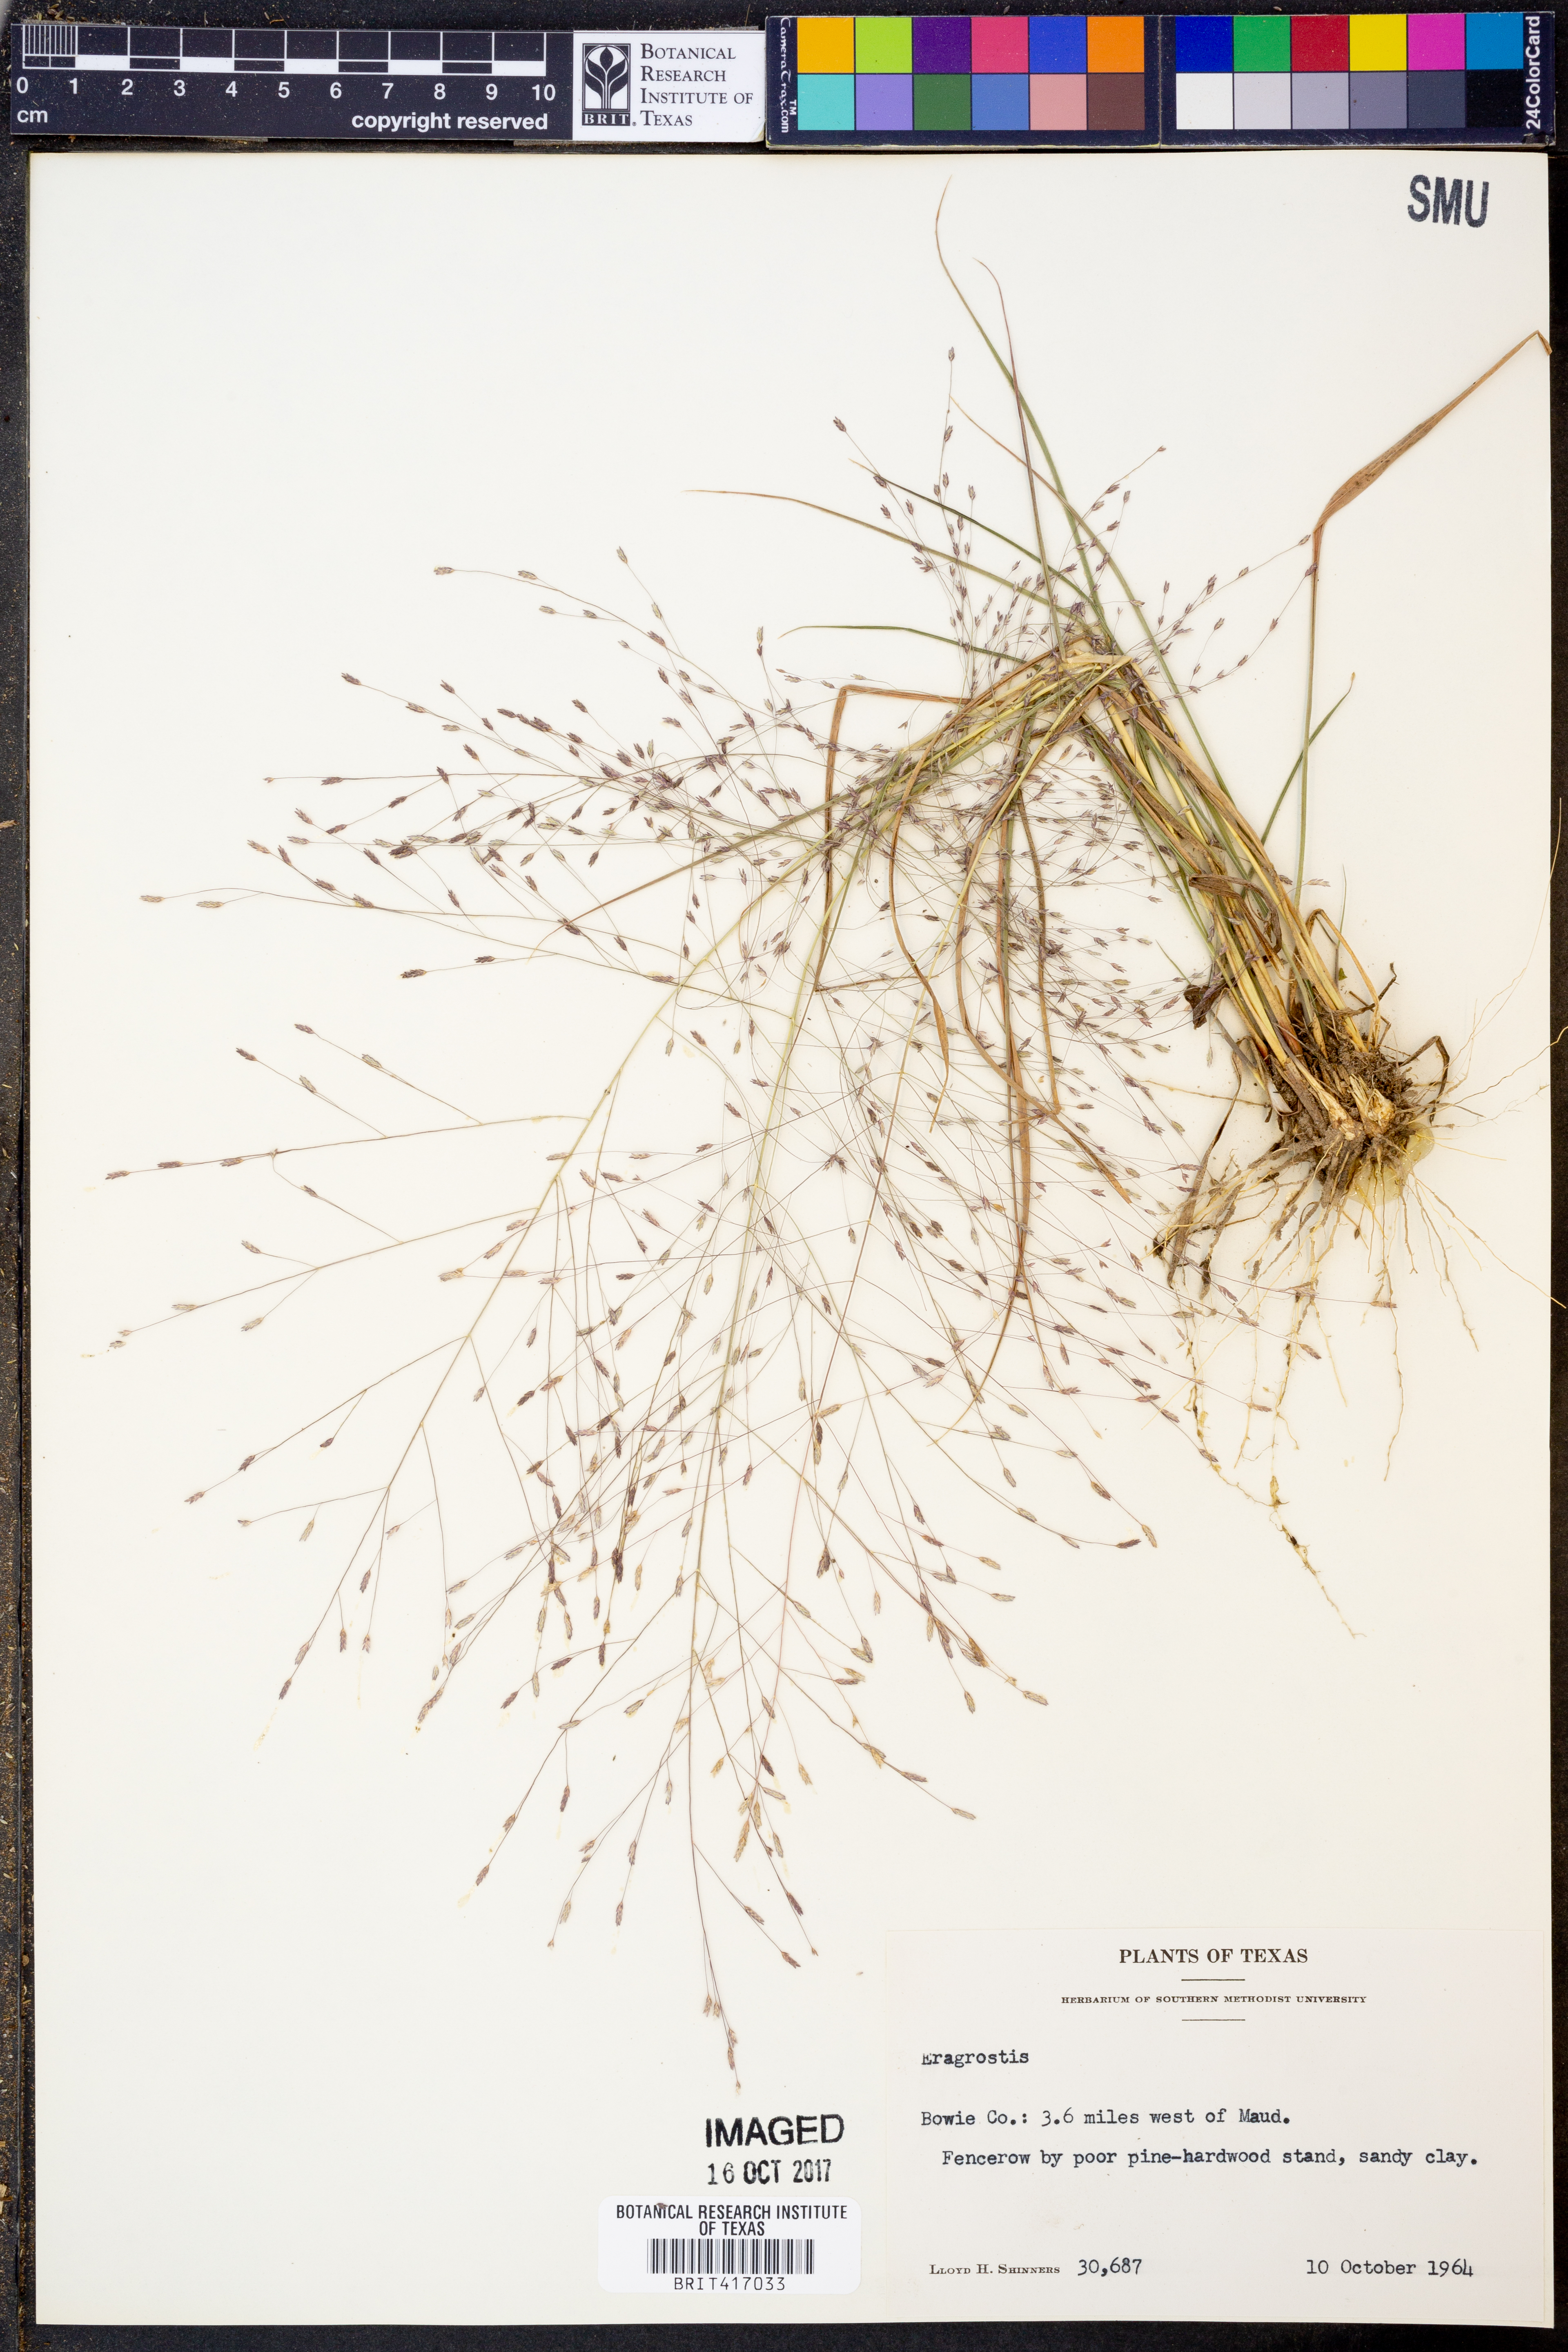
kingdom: Plantae
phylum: Tracheophyta
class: Liliopsida
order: Poales
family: Poaceae
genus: Eragrostis
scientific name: Eragrostis
